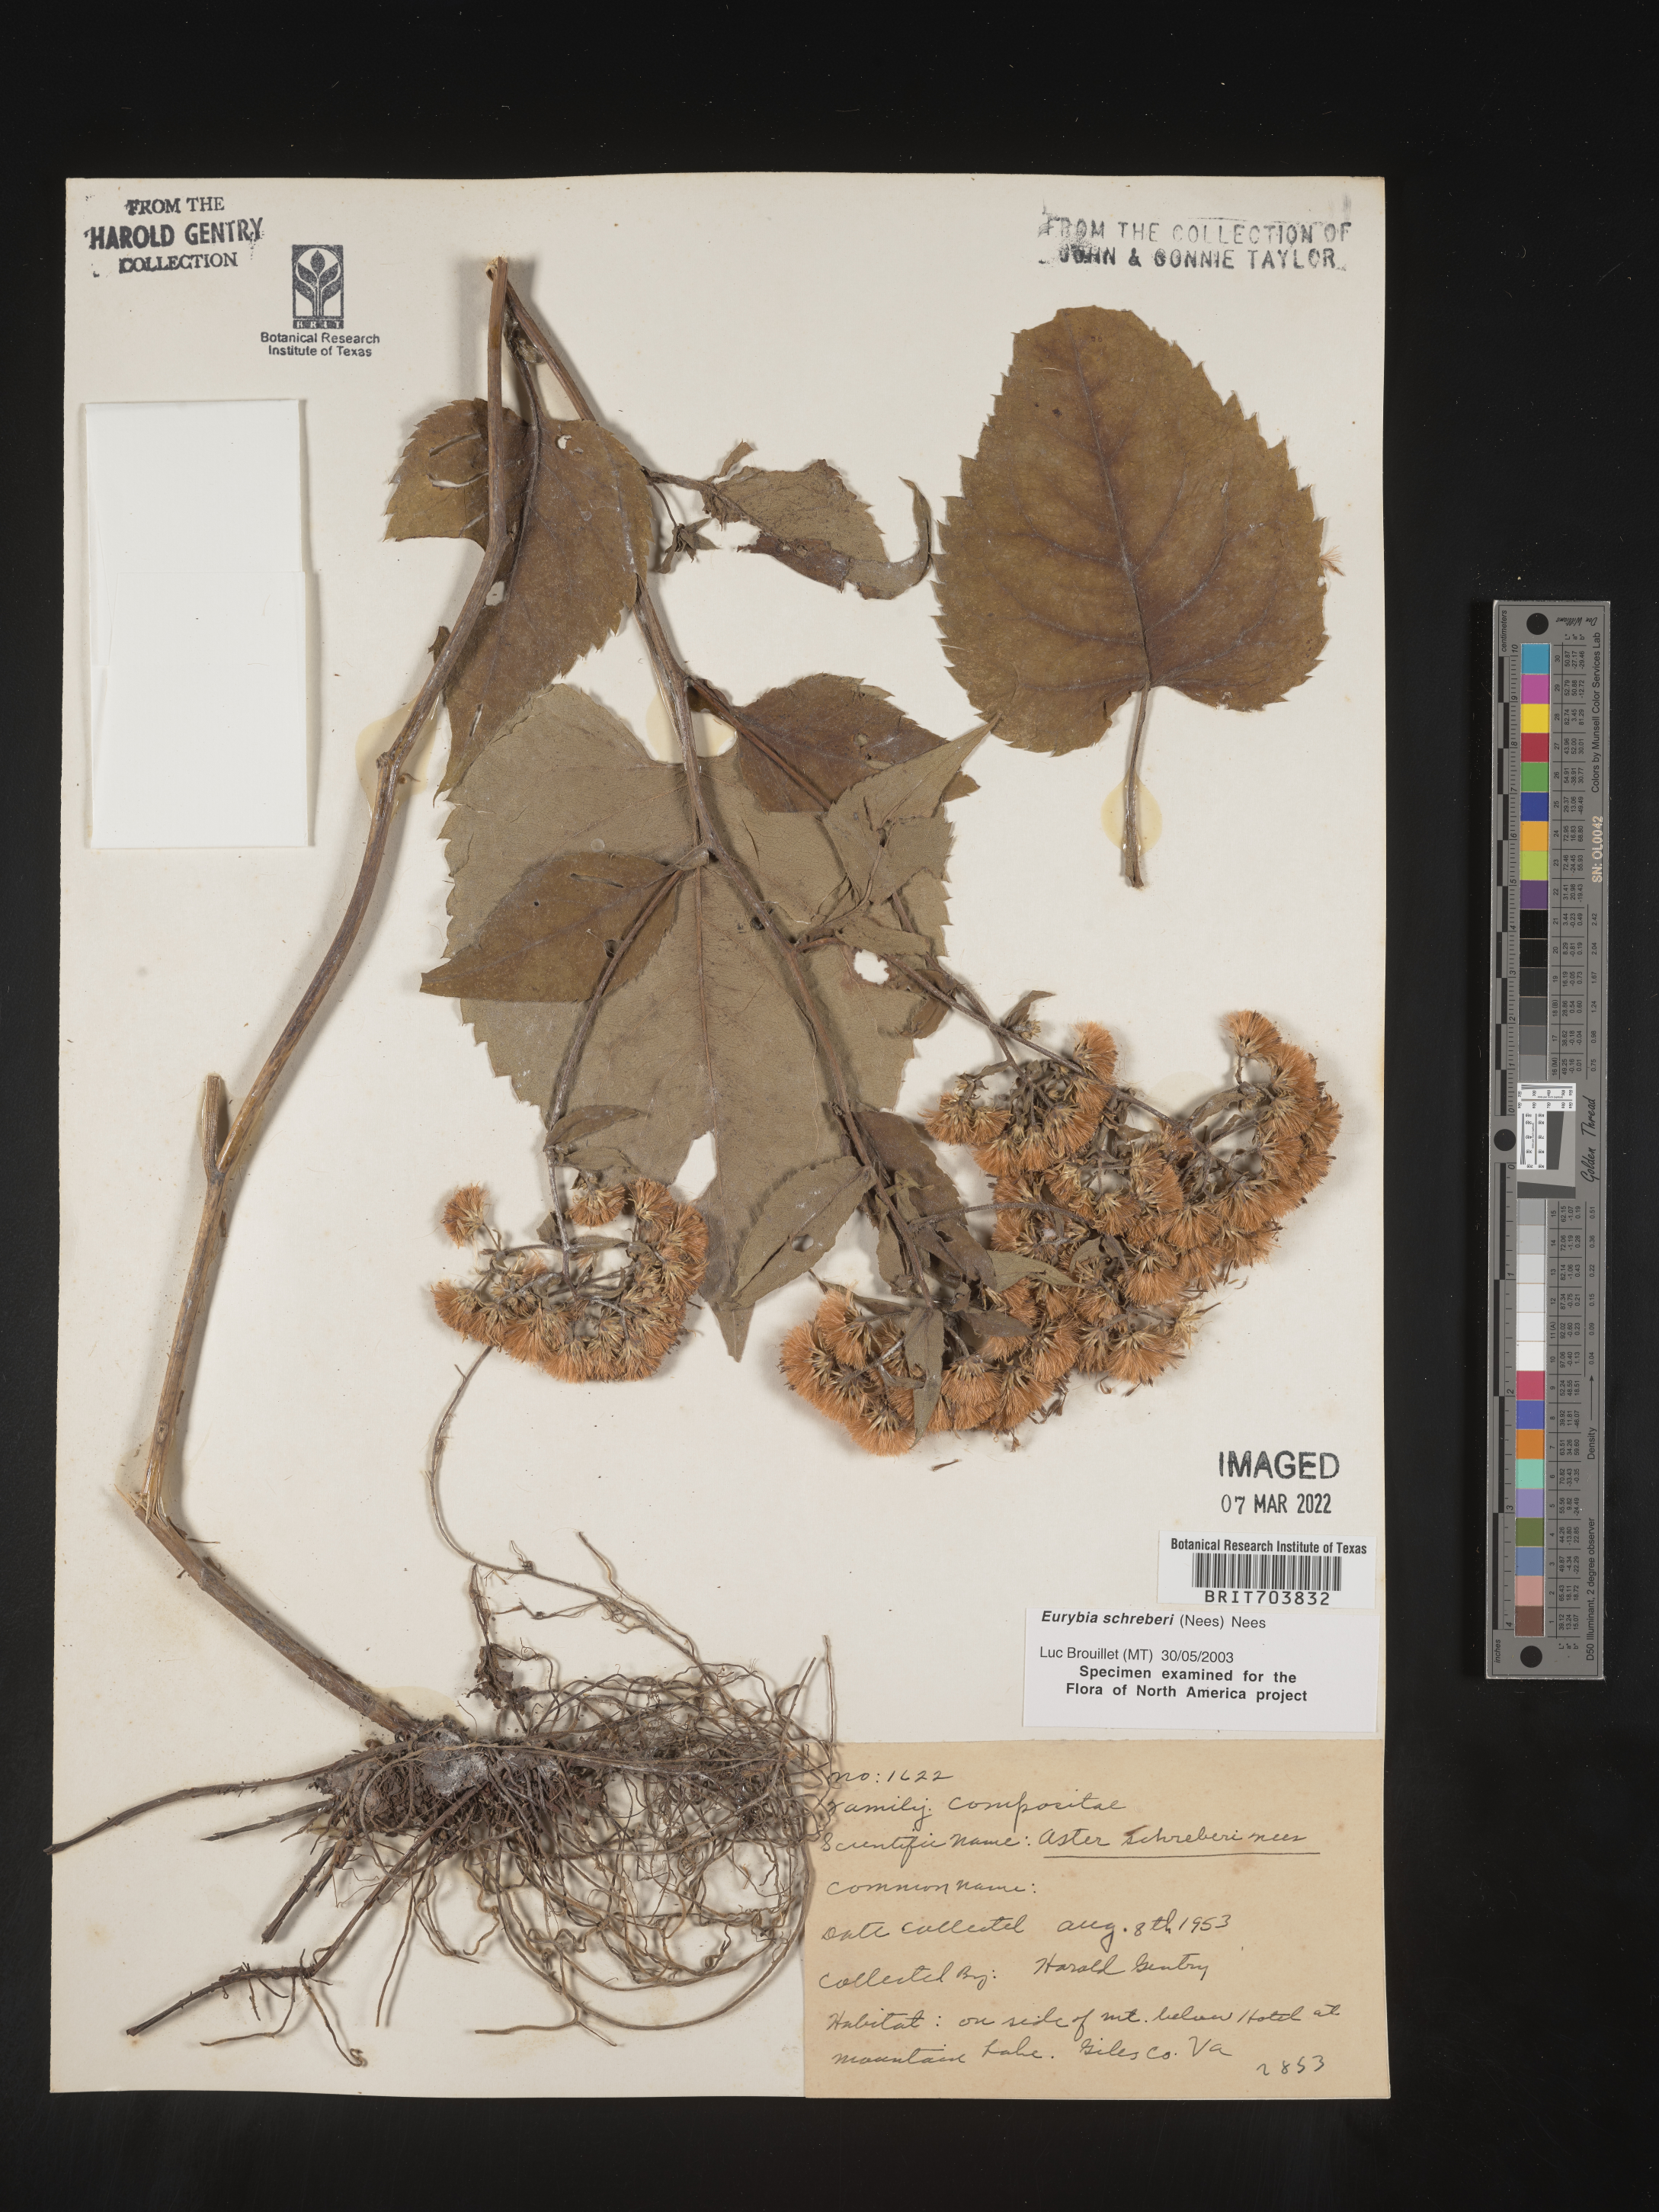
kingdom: Plantae
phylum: Tracheophyta
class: Magnoliopsida
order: Asterales
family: Asteraceae
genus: Eurybia
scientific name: Eurybia schreberi
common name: Schreber's aster
